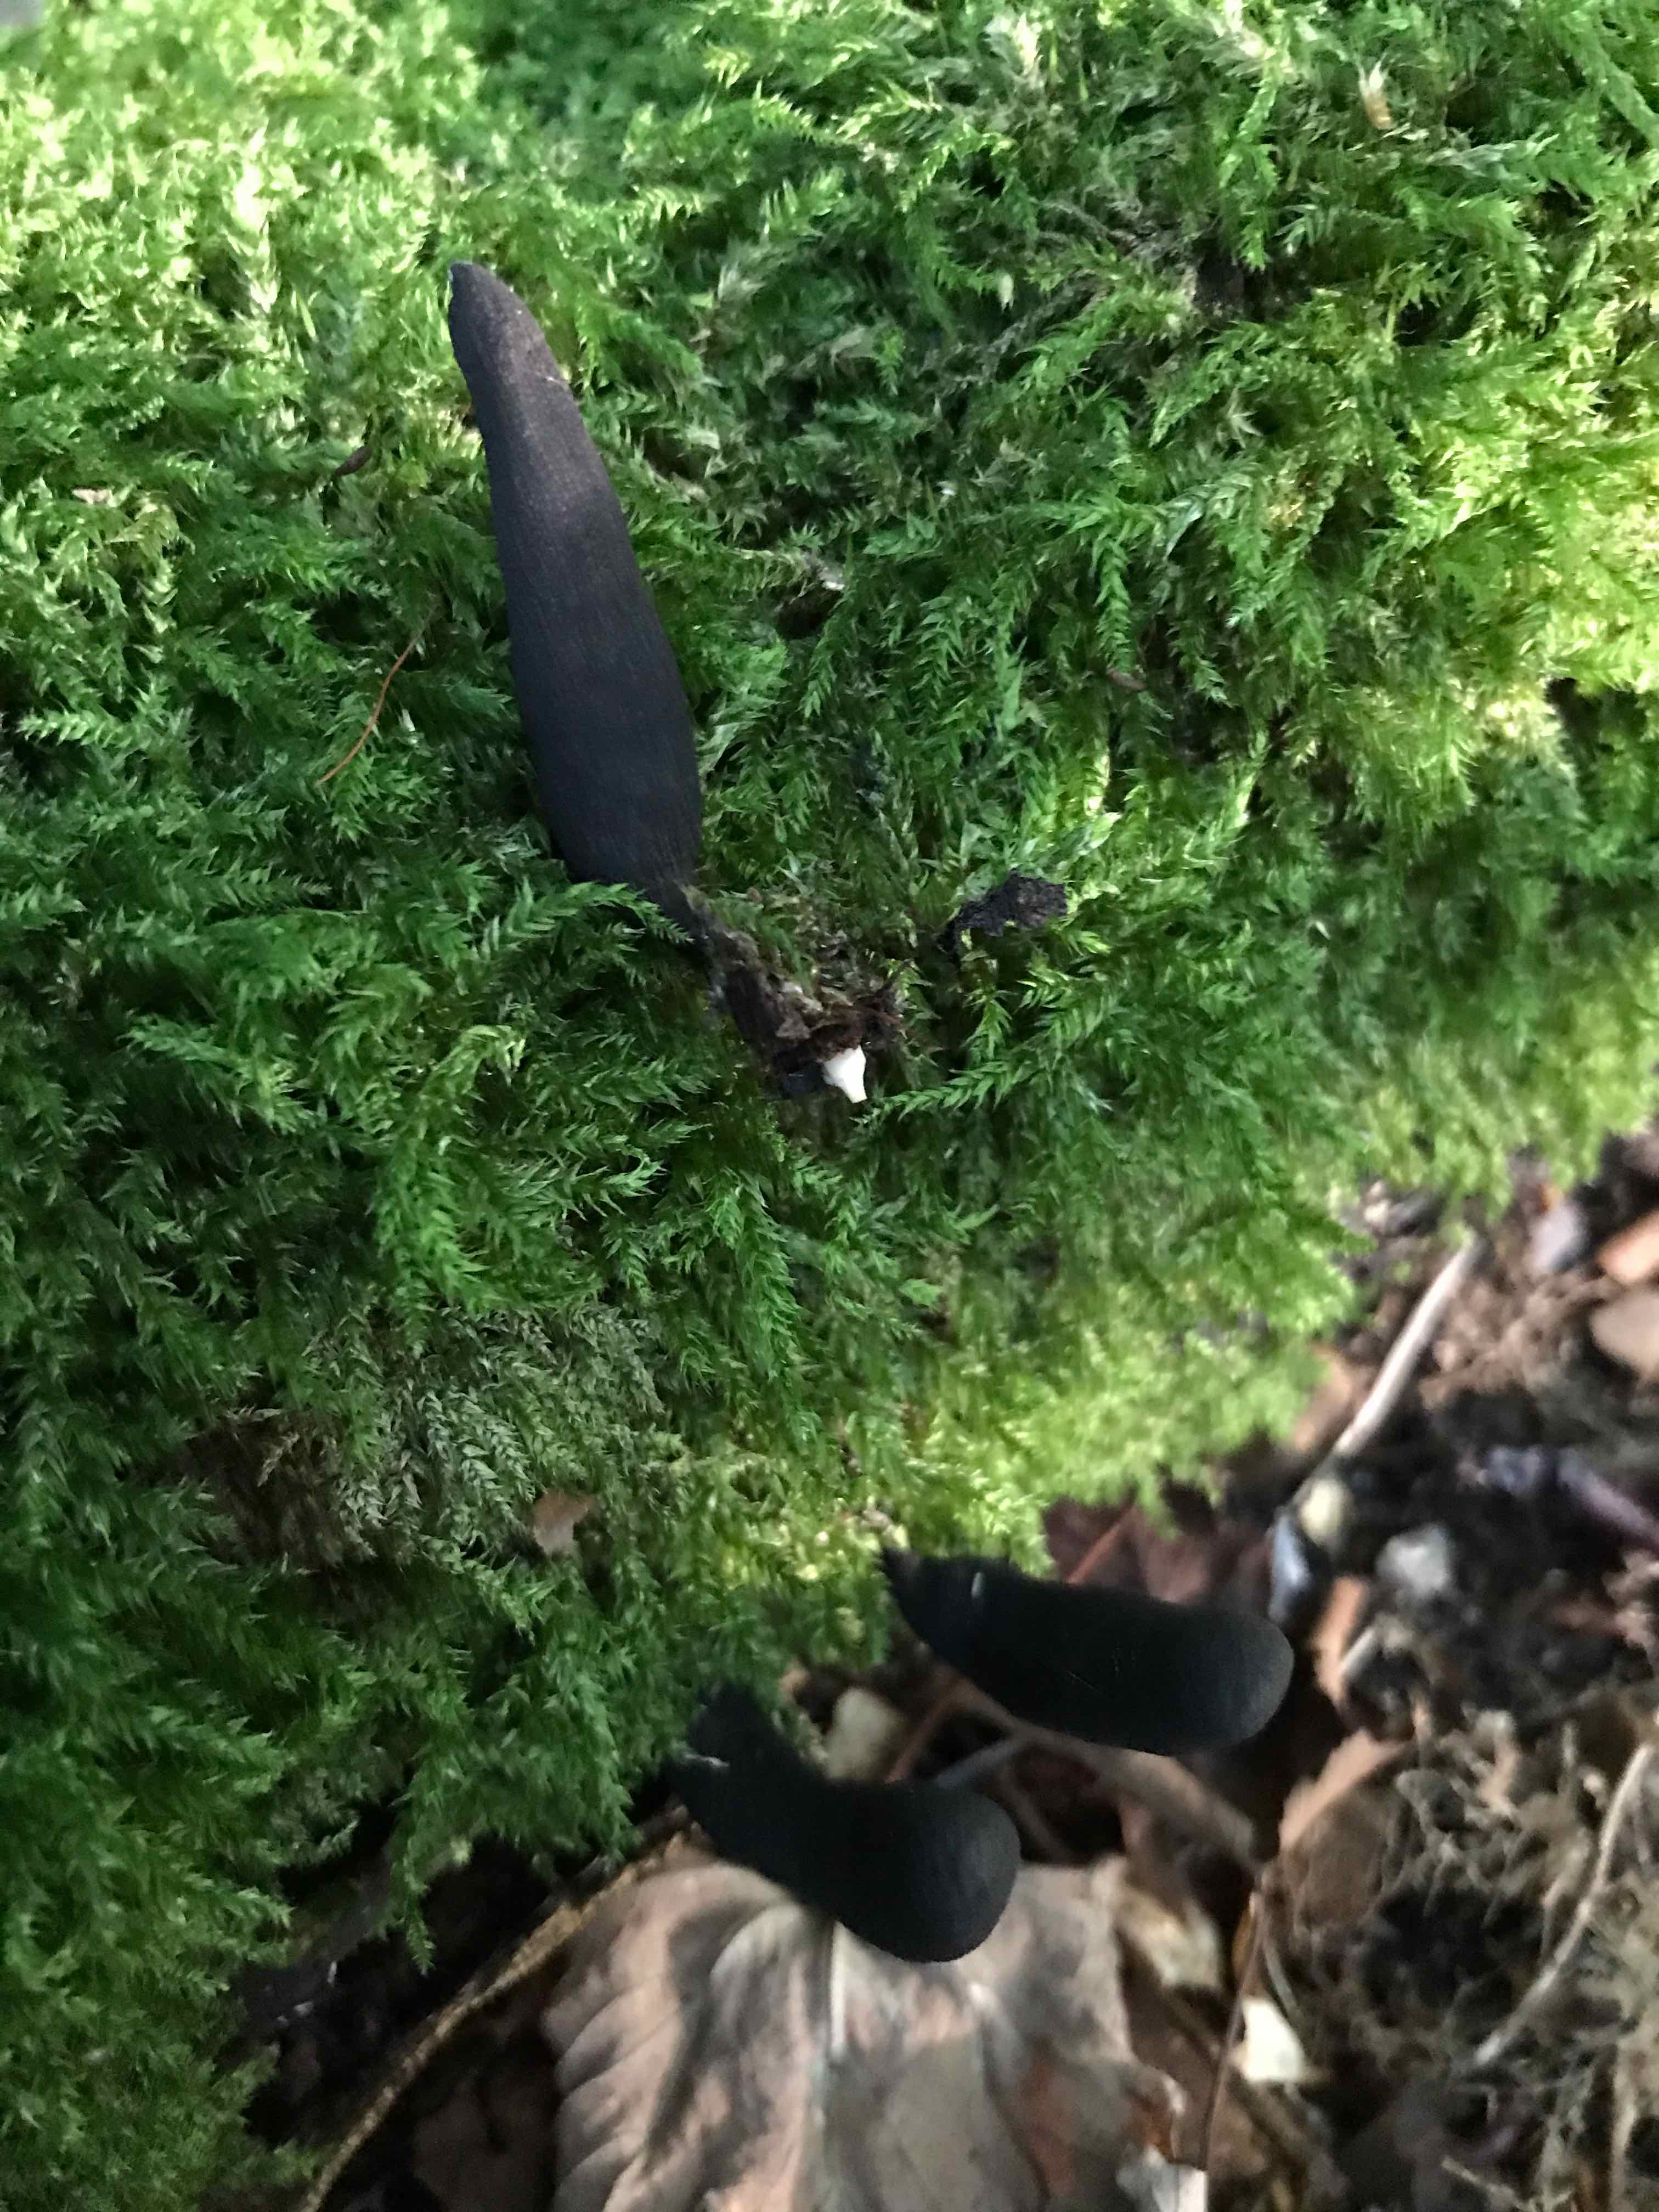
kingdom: Fungi
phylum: Ascomycota
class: Sordariomycetes
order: Xylariales
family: Xylariaceae
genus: Xylaria
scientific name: Xylaria longipes
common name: slank stødsvamp
